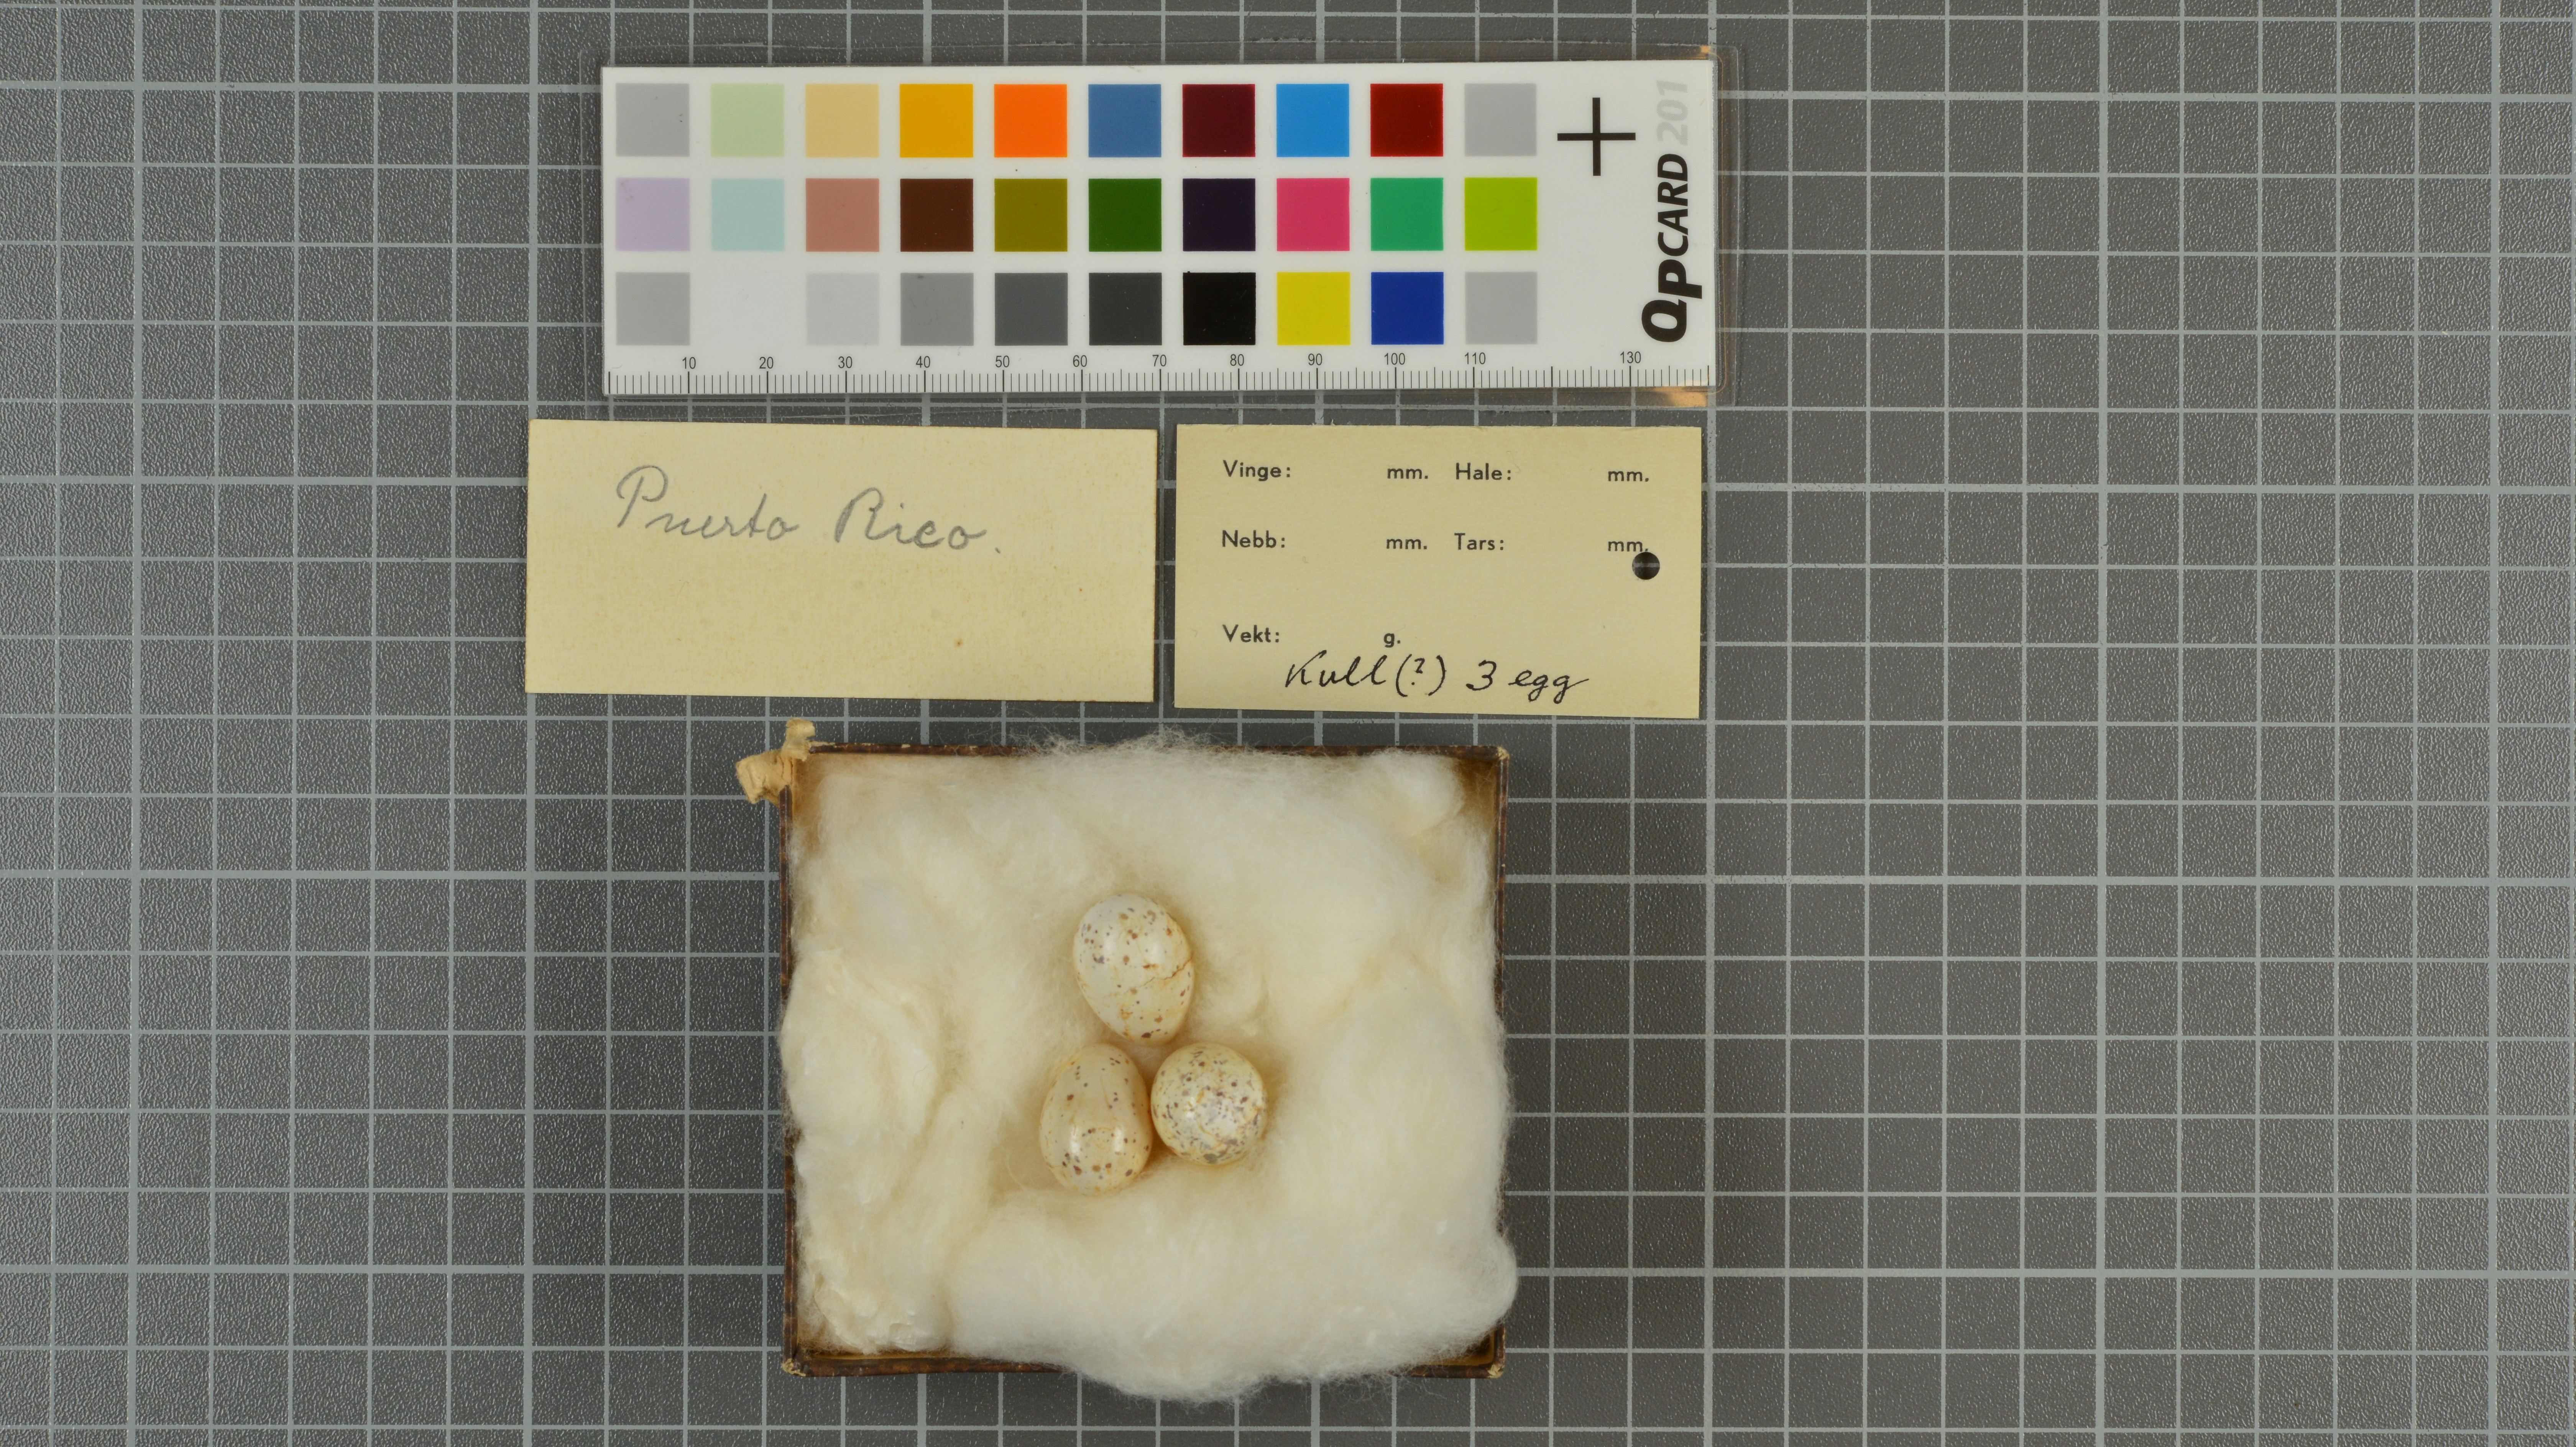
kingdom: Animalia
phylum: Chordata
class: Aves
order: Passeriformes
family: Hirundinidae
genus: Petrochelidon
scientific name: Petrochelidon fulva
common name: Cave swallow
